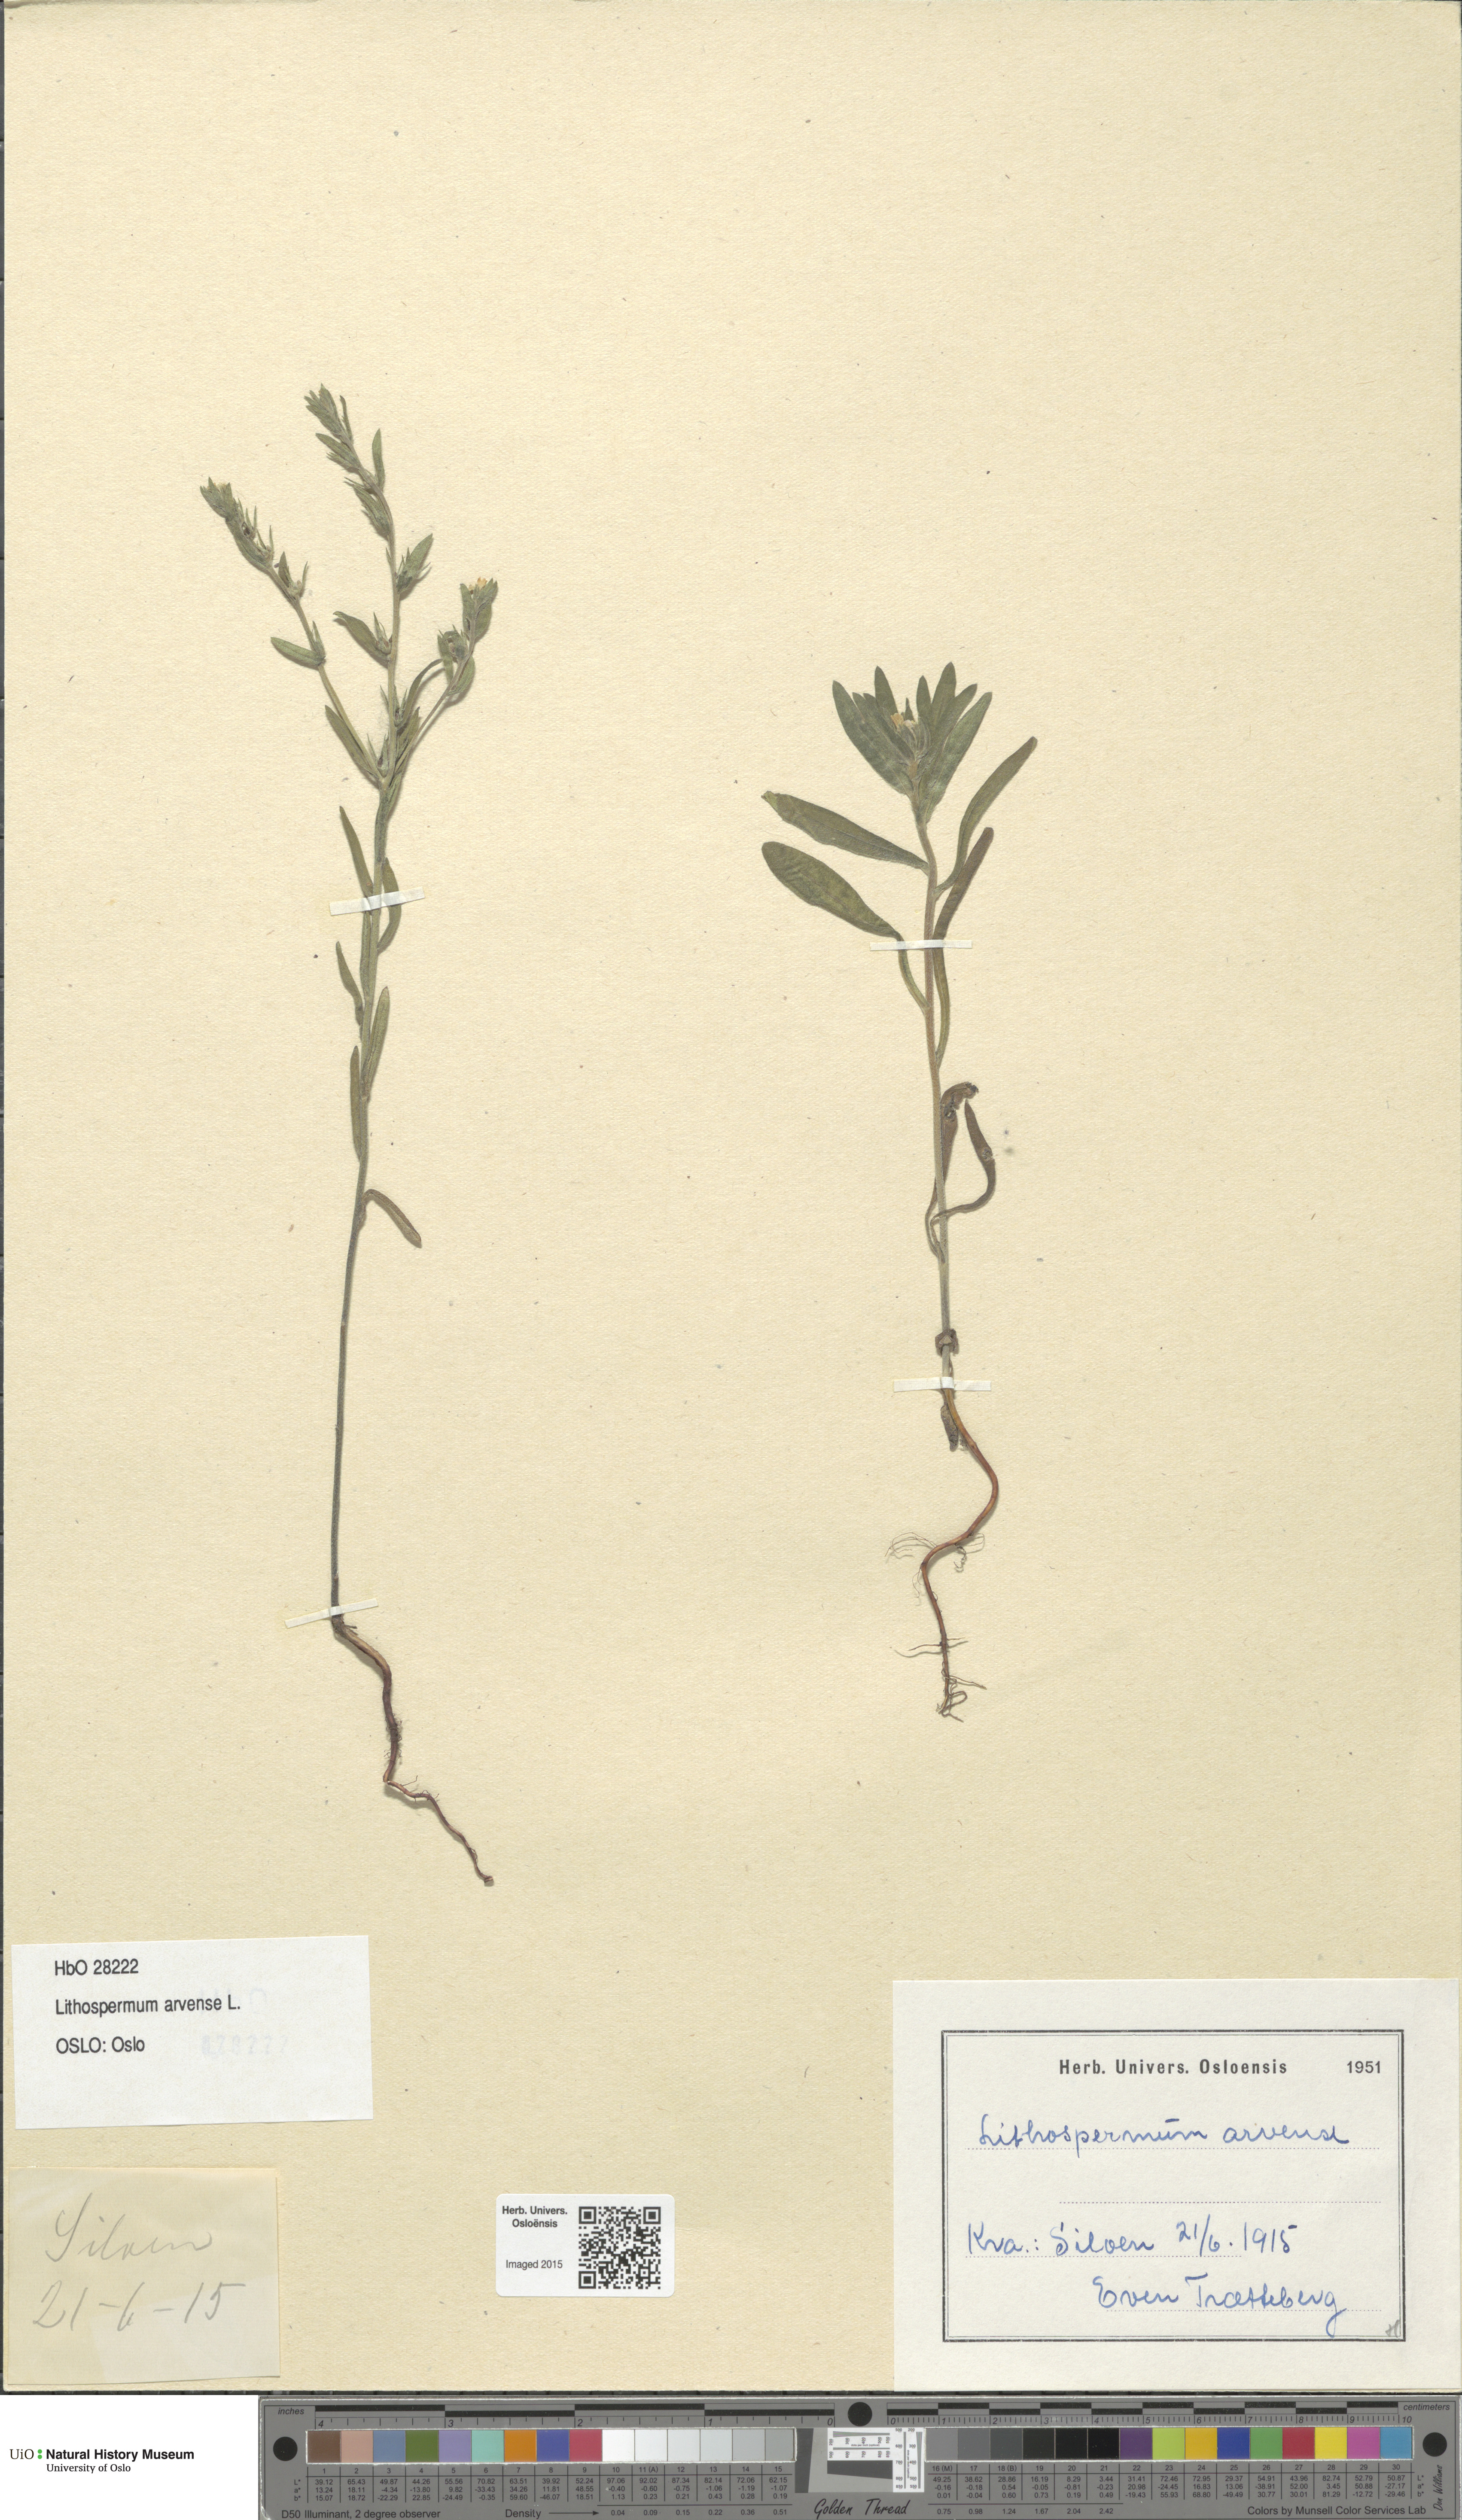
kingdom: Plantae
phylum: Tracheophyta
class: Magnoliopsida
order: Boraginales
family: Boraginaceae
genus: Buglossoides
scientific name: Buglossoides arvensis
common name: Corn gromwell
